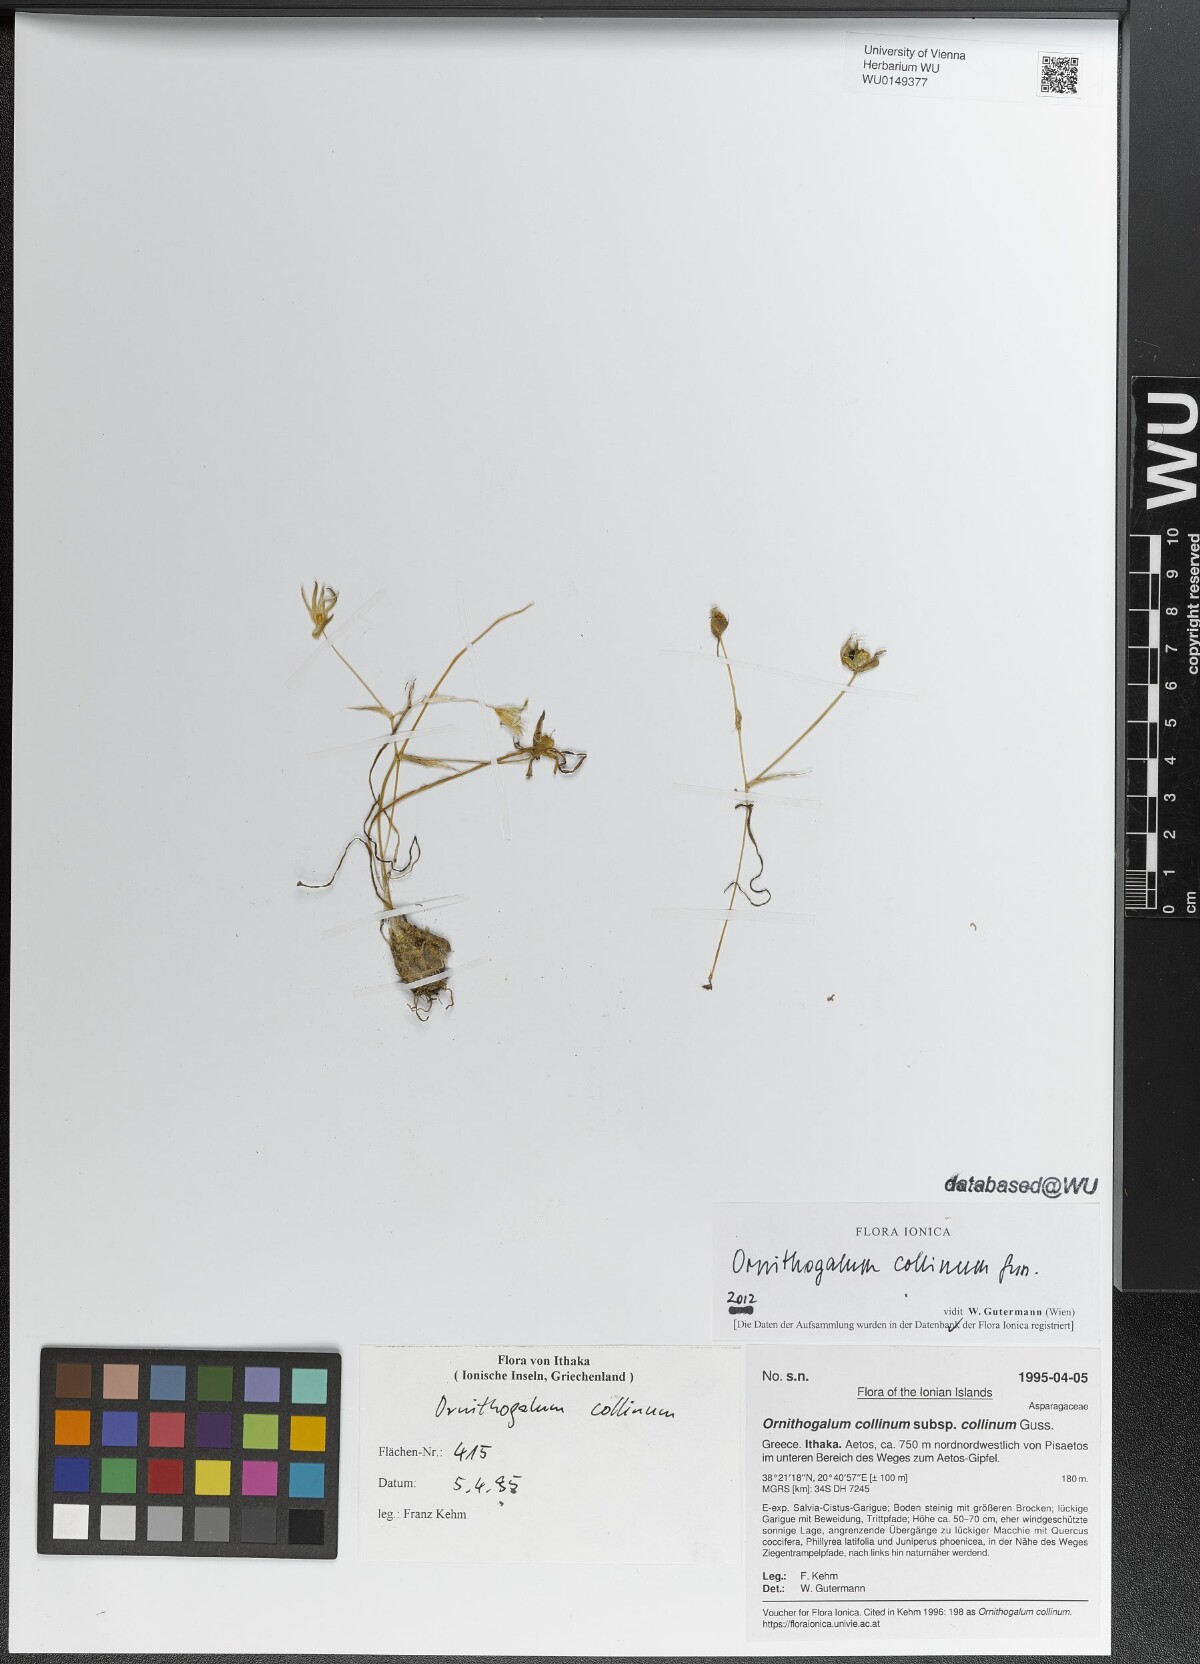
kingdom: Plantae
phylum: Tracheophyta
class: Liliopsida
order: Asparagales
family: Asparagaceae
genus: Ornithogalum
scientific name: Ornithogalum collinum
